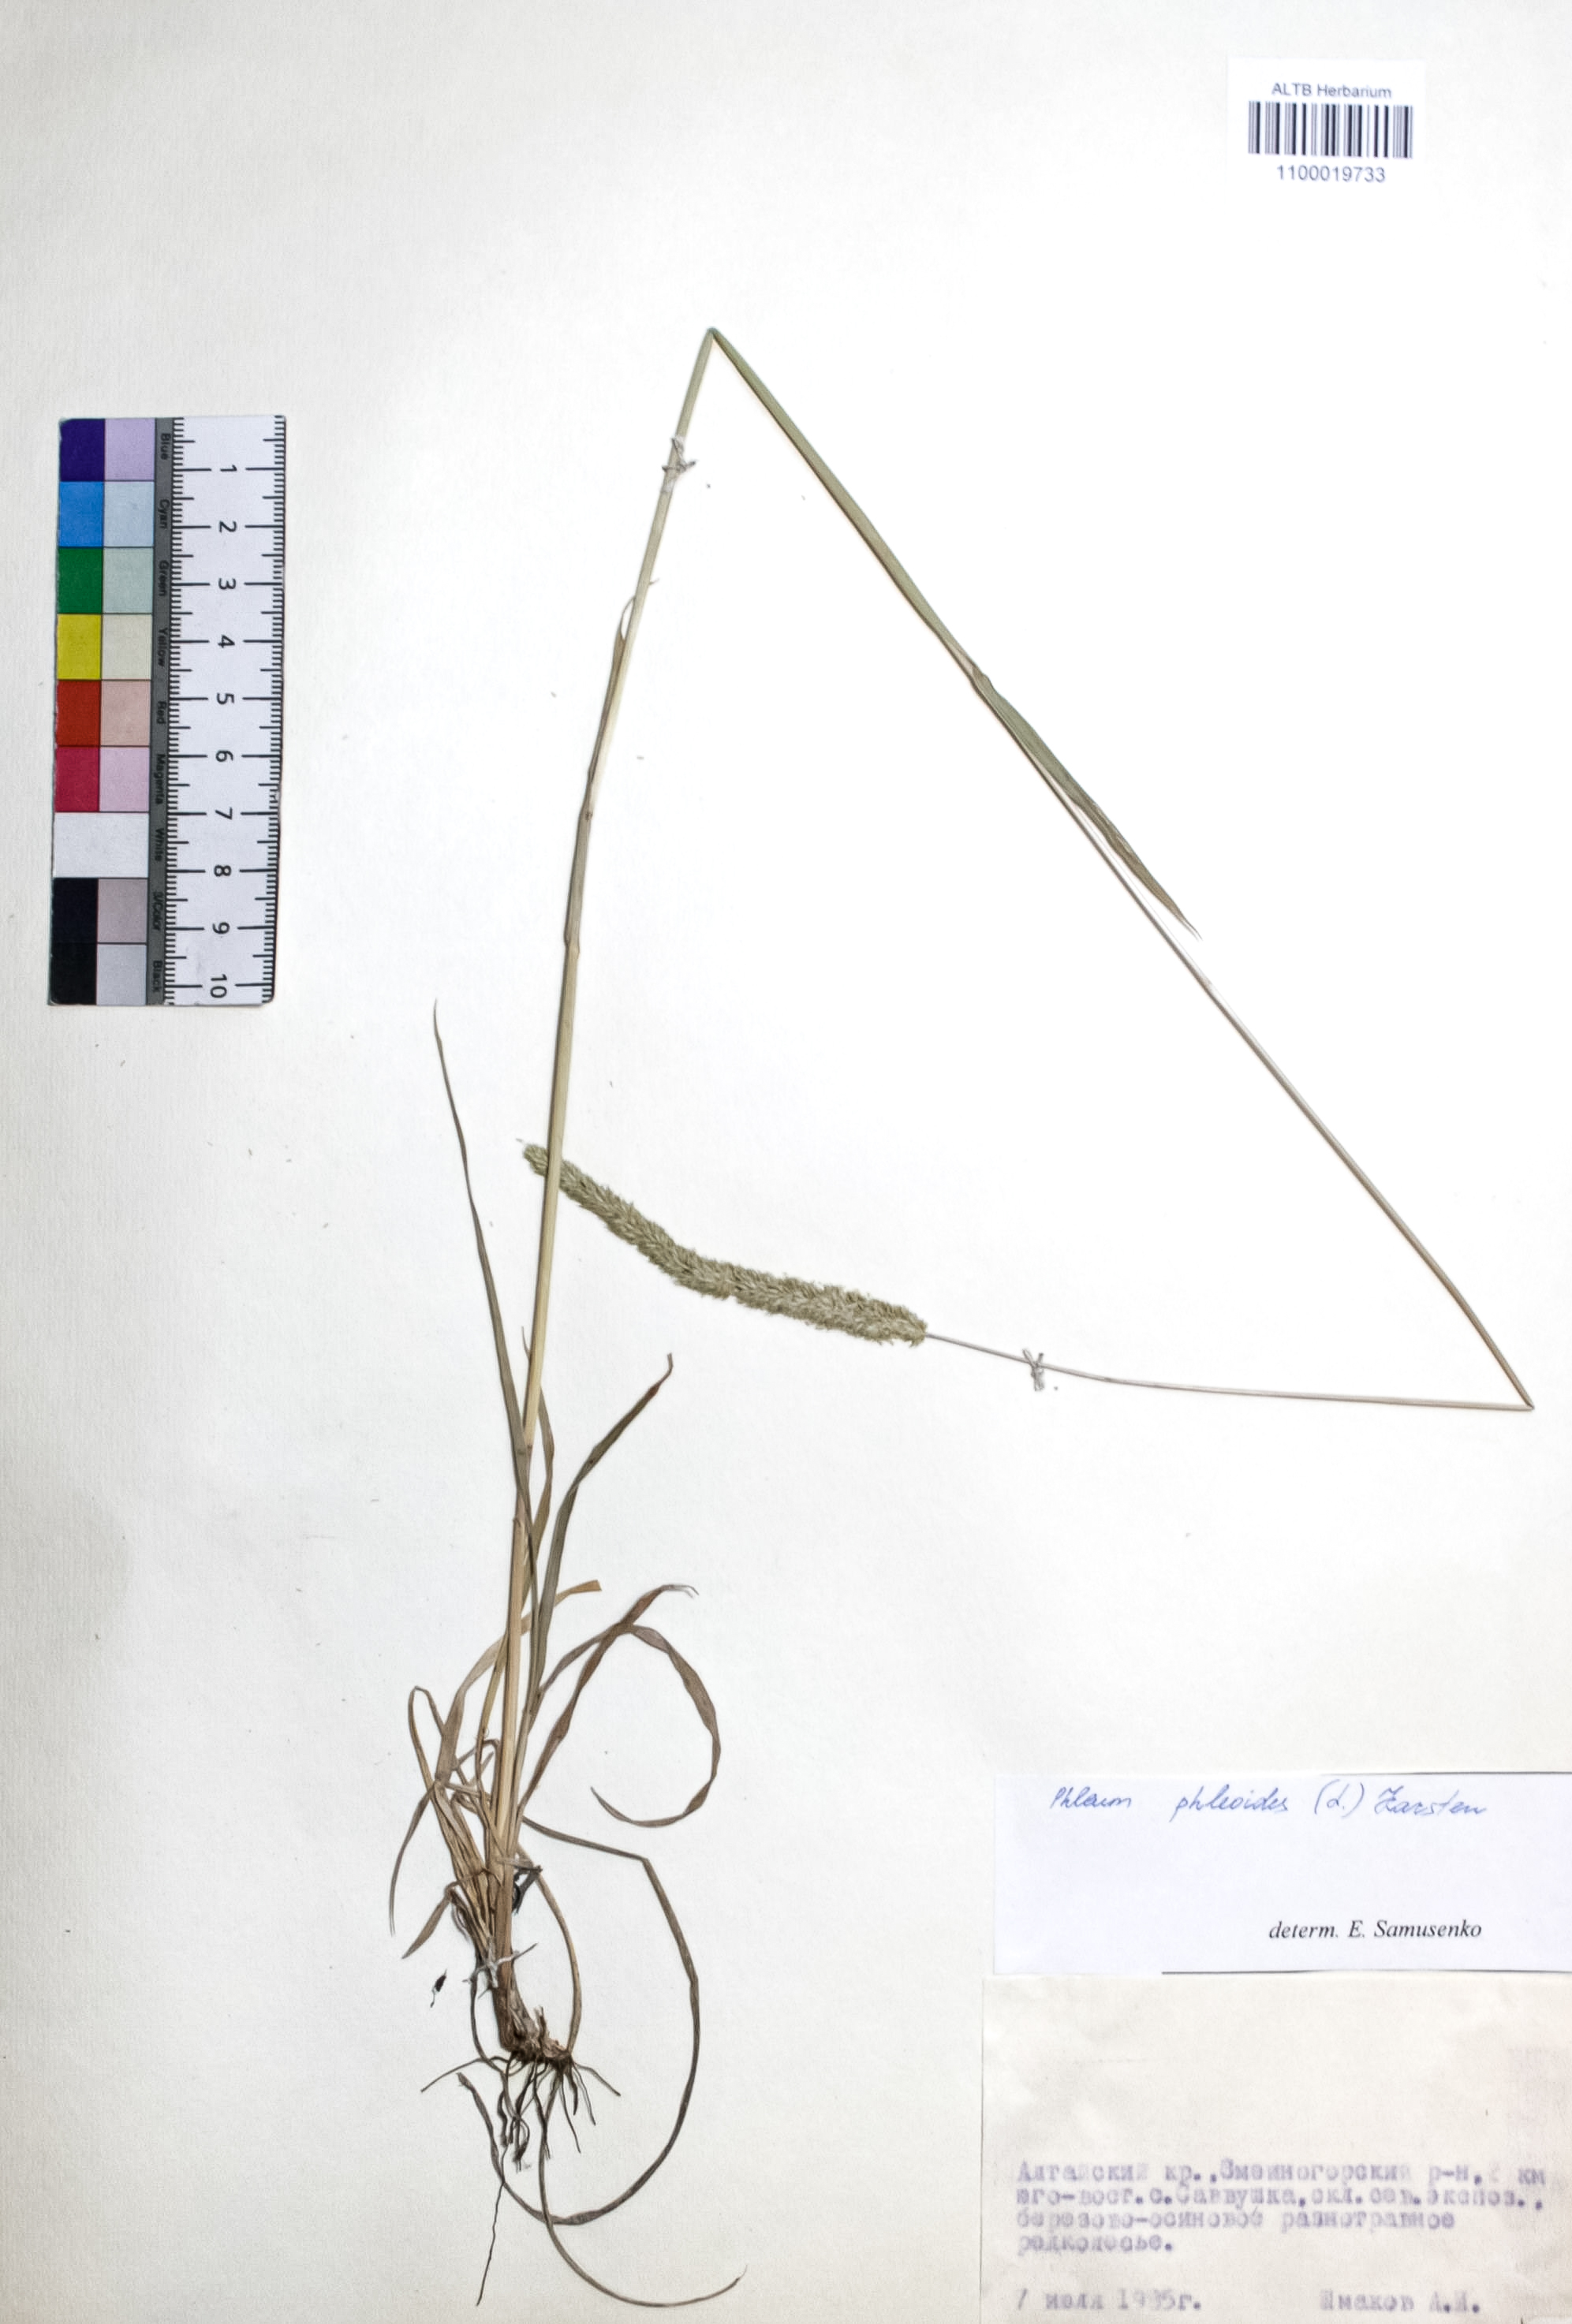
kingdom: Plantae
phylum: Tracheophyta
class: Liliopsida
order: Poales
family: Poaceae
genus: Phleum
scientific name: Phleum phleoides
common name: Purple-stem cat's-tail
